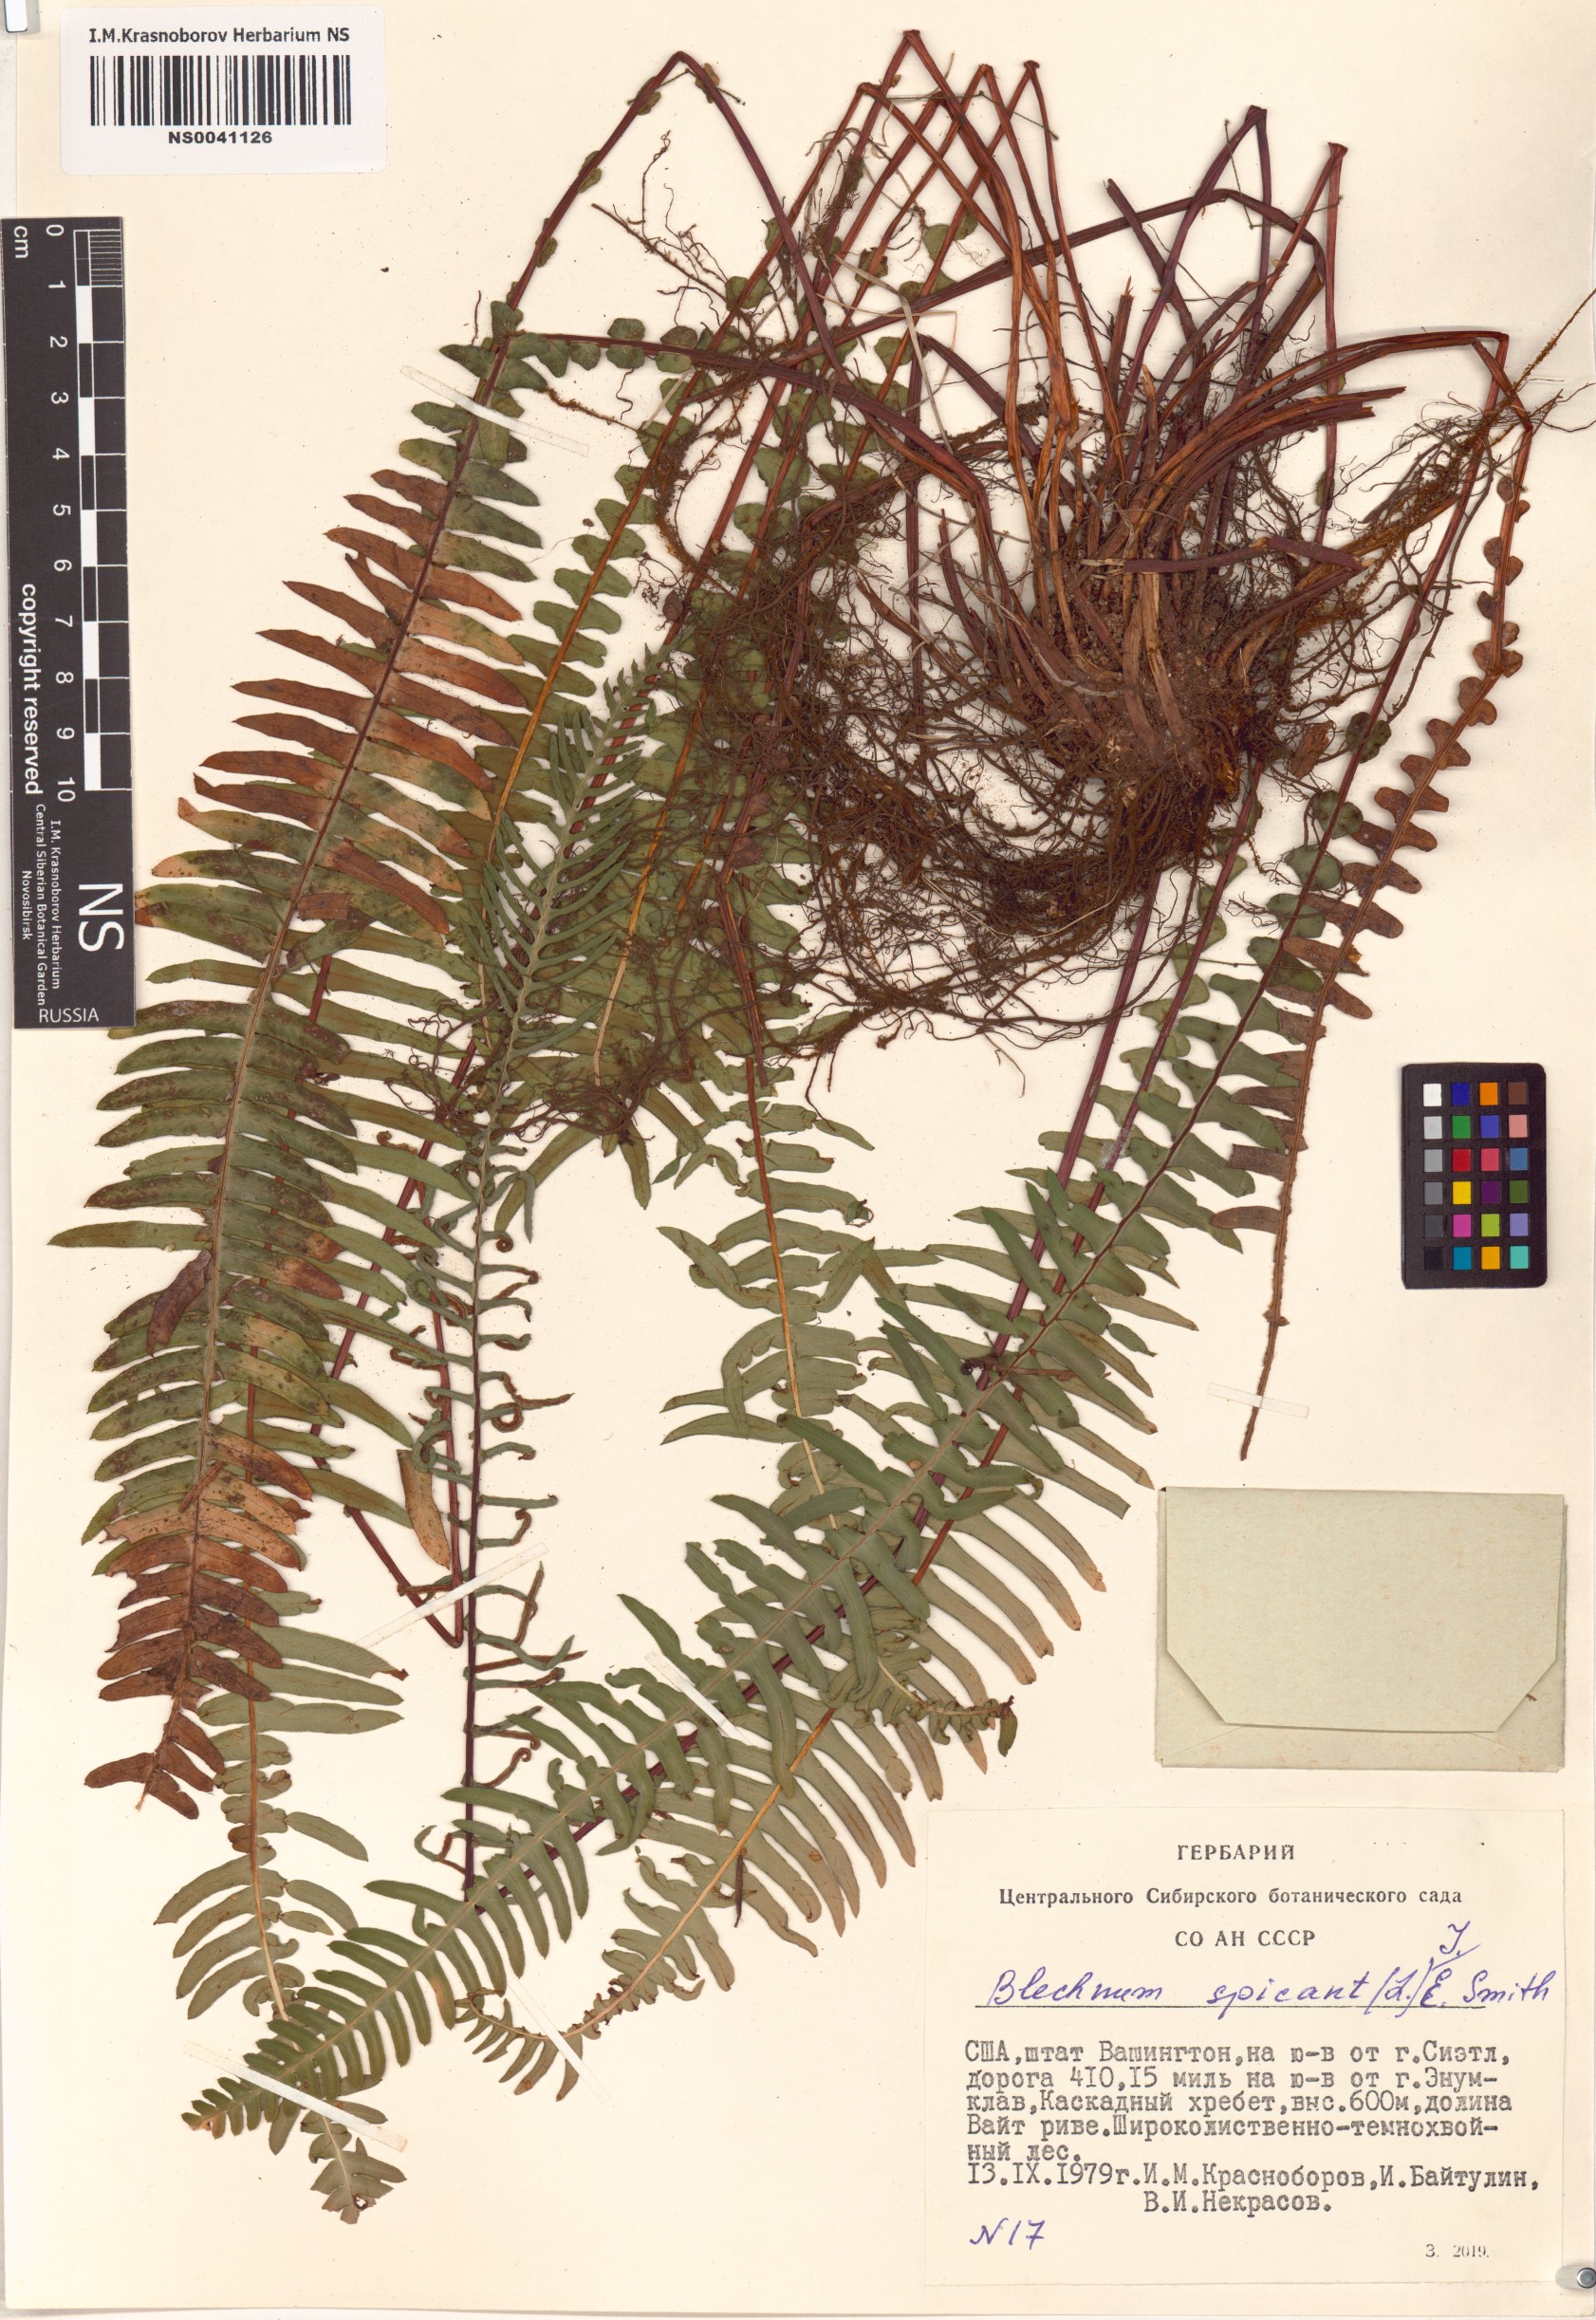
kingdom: Plantae
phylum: Tracheophyta
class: Polypodiopsida
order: Polypodiales
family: Blechnaceae
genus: Struthiopteris
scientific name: Struthiopteris spicant
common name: Deer fern
